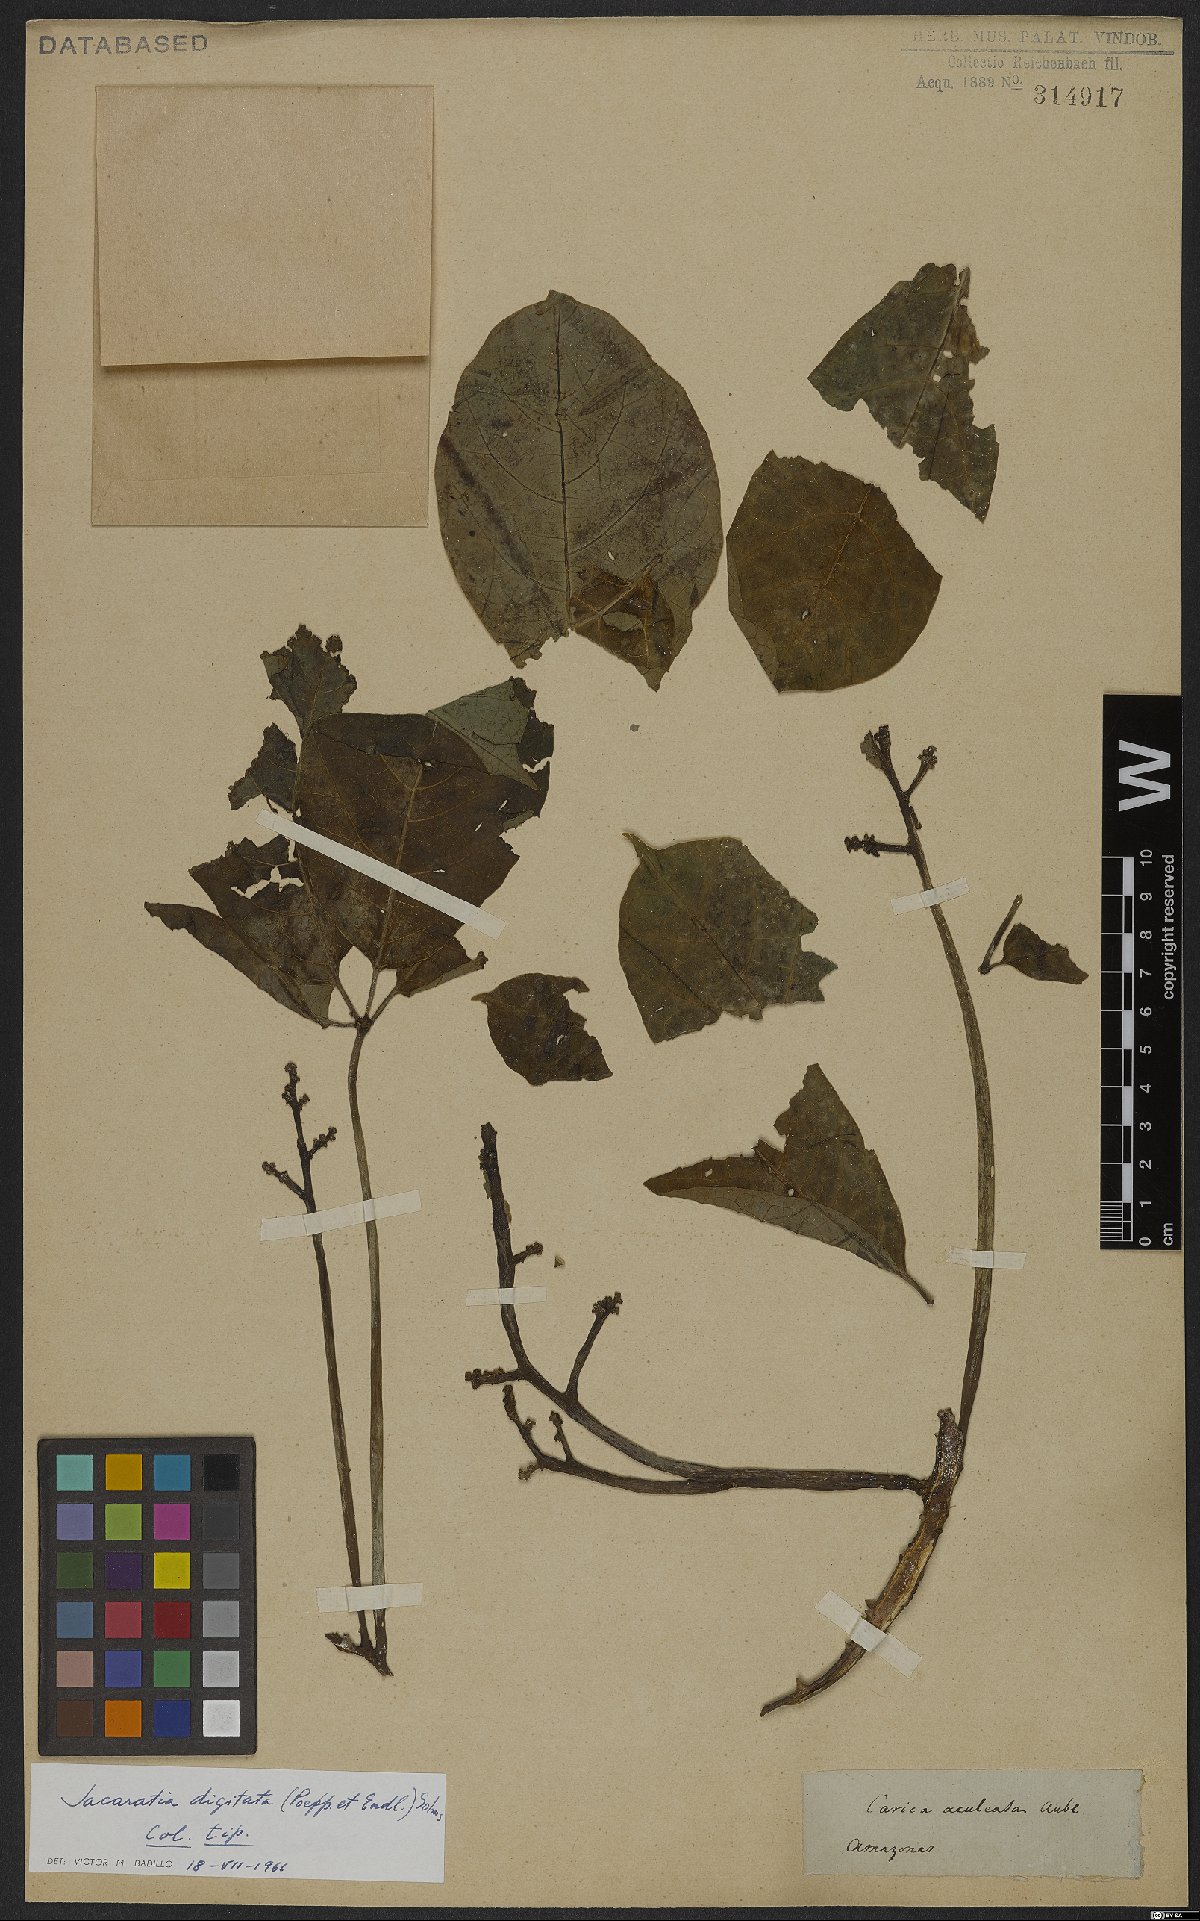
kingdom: Plantae
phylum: Tracheophyta
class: Magnoliopsida
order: Brassicales
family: Caricaceae
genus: Jacaratia
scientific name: Jacaratia digitata
